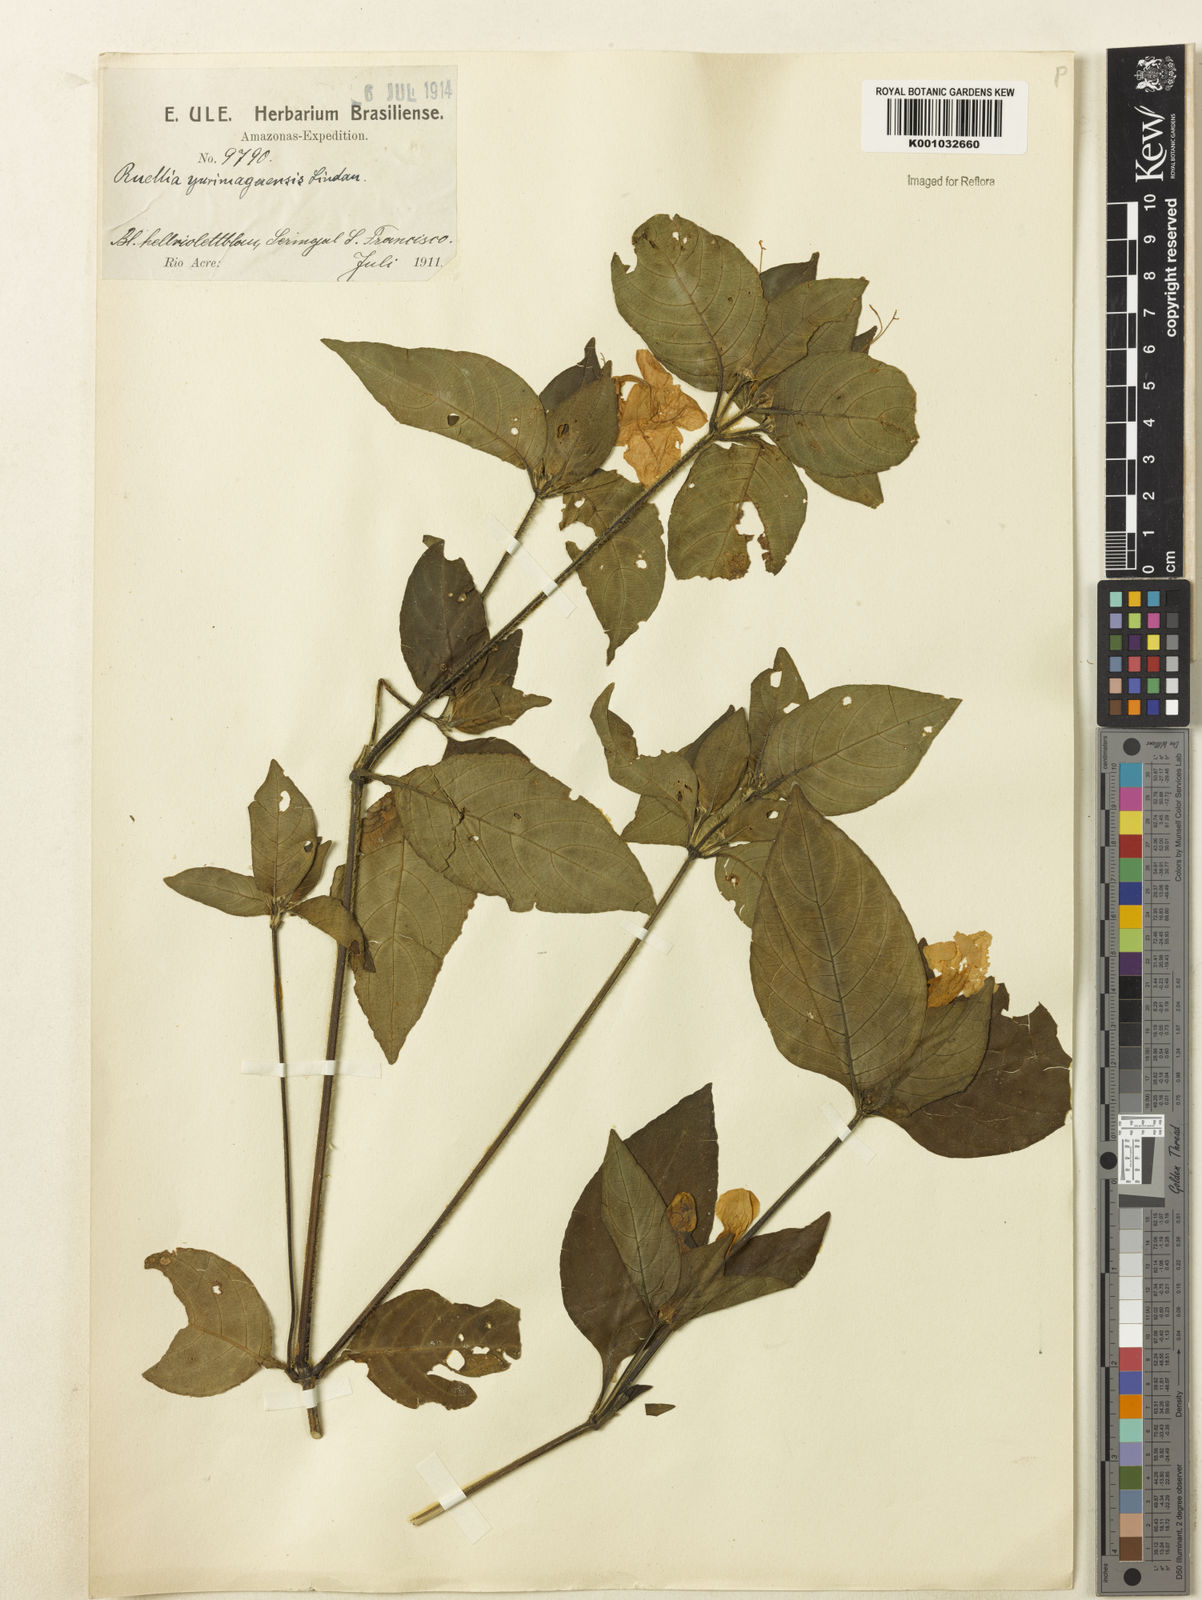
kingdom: Plantae
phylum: Tracheophyta
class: Magnoliopsida
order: Lamiales
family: Acanthaceae
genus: Ruellia
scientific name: Ruellia yurimaguensis
